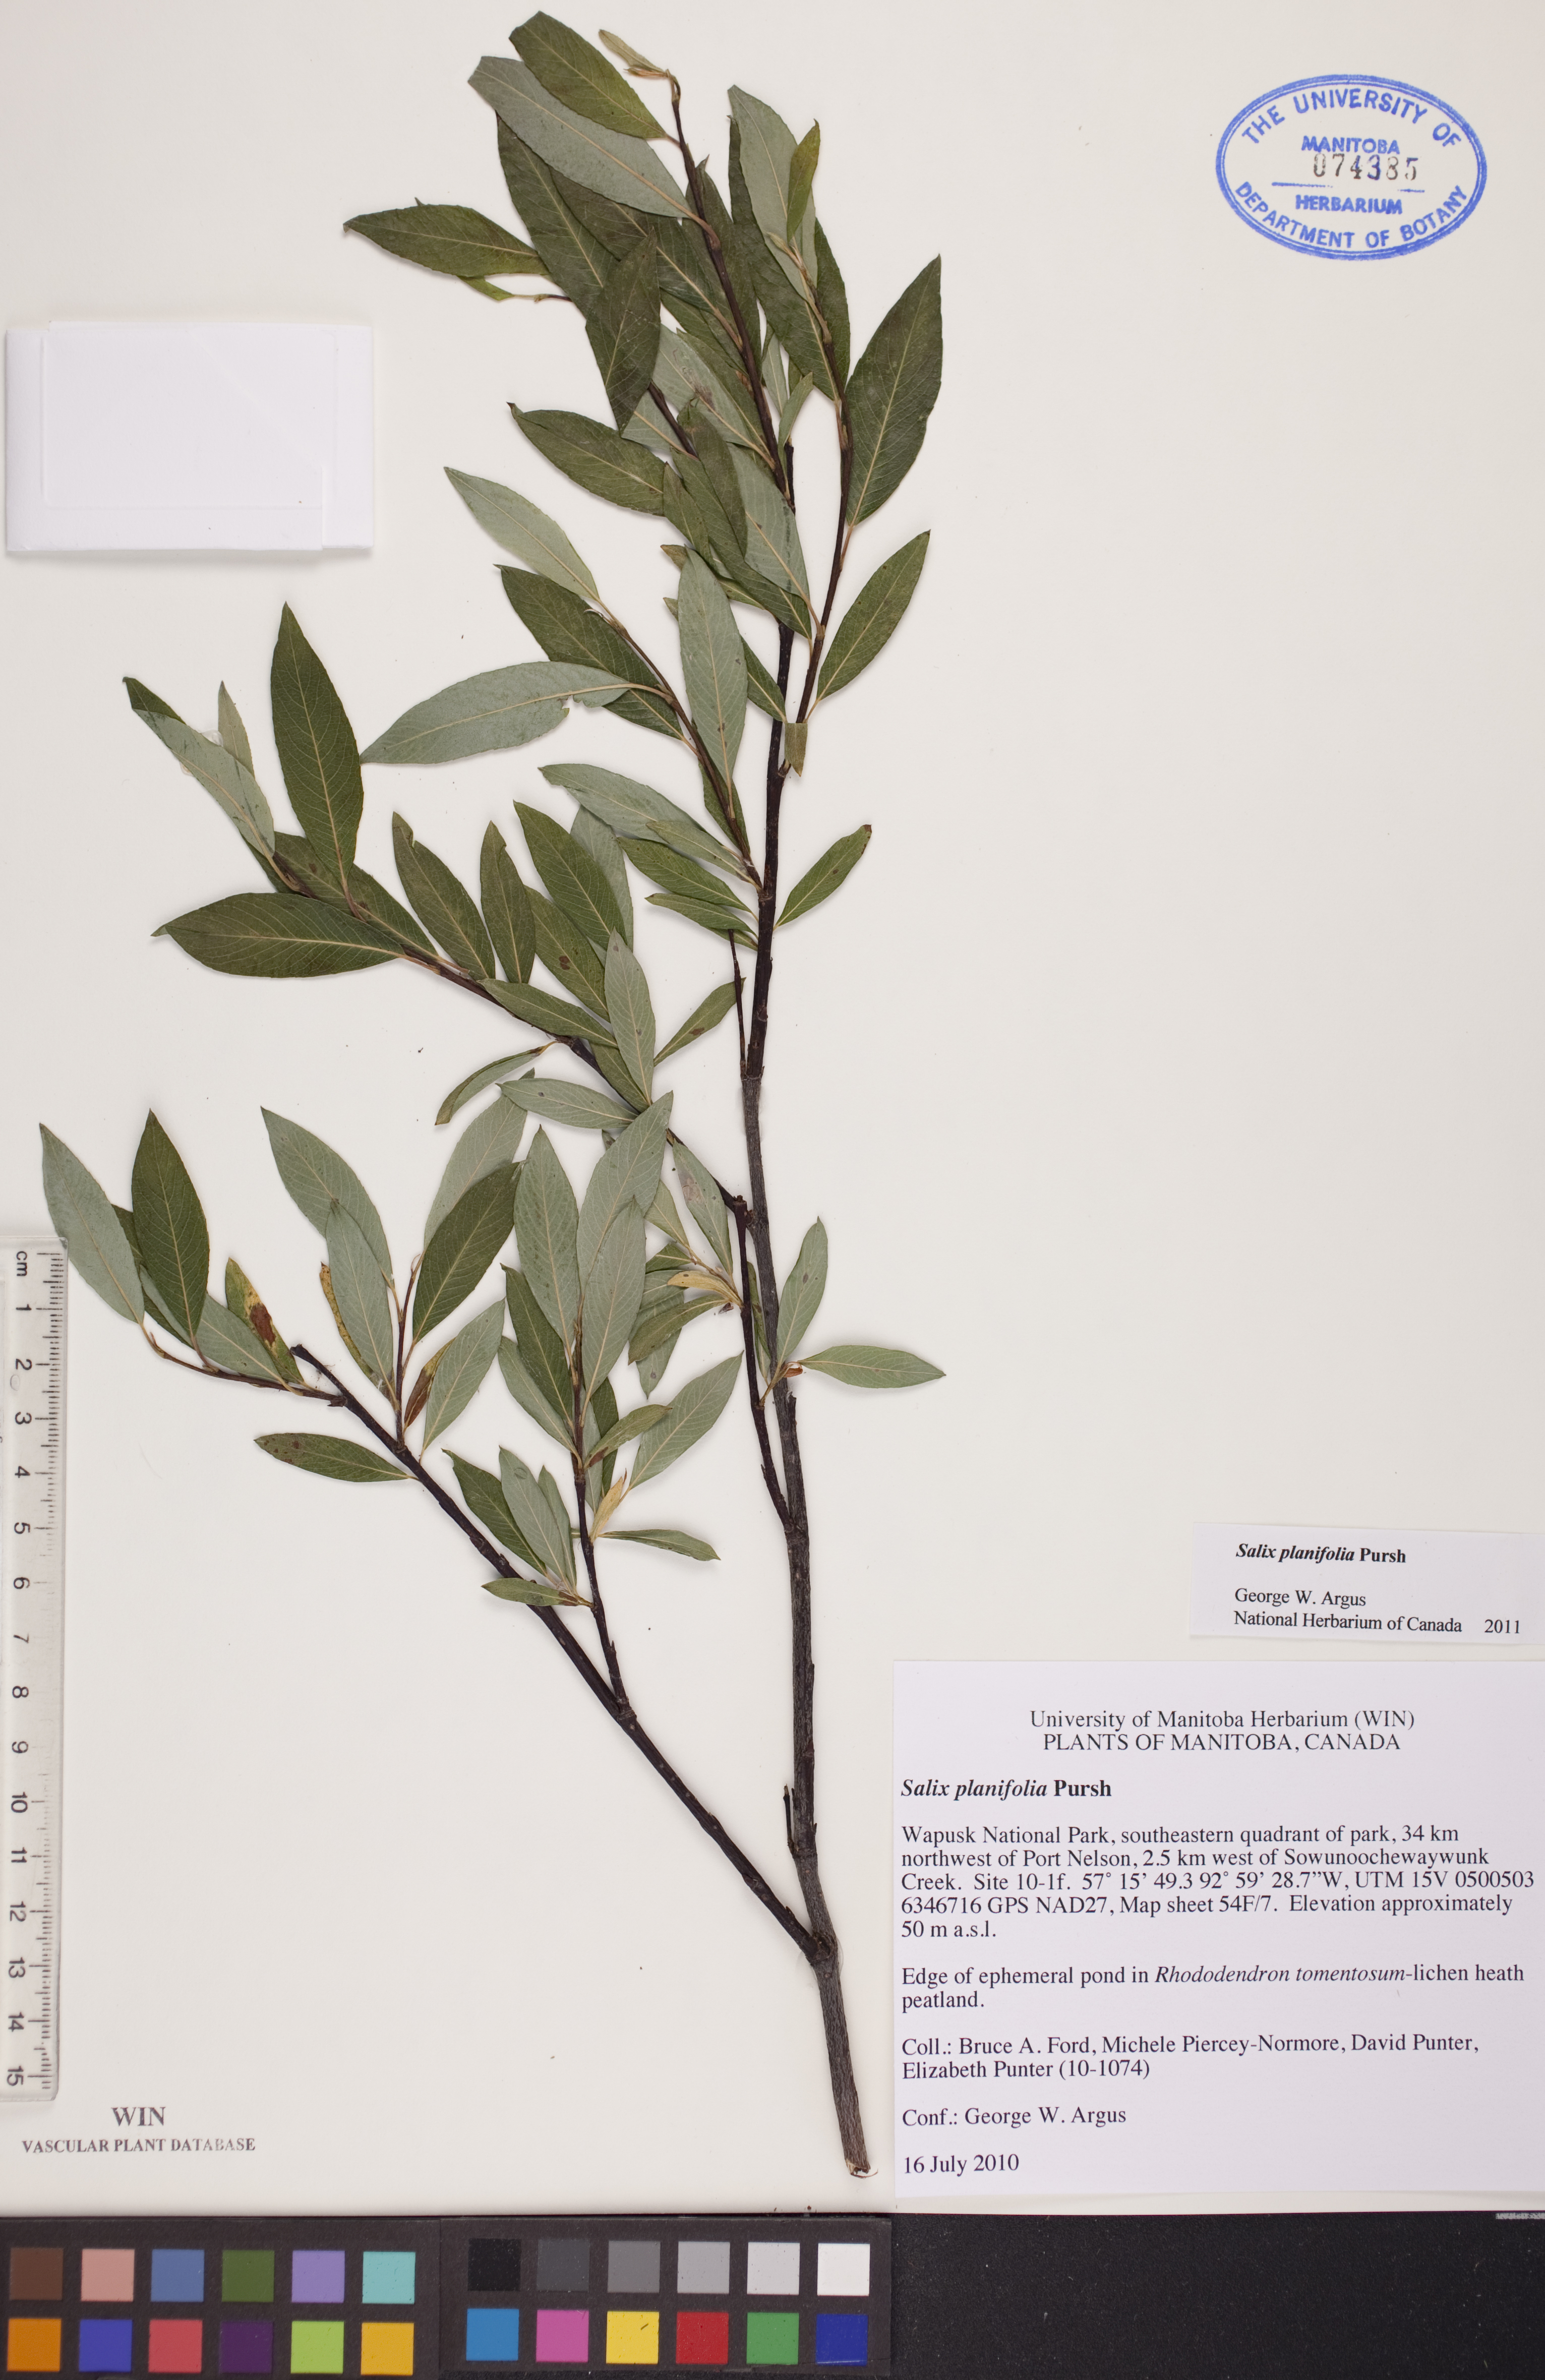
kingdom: Plantae
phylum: Tracheophyta
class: Magnoliopsida
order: Malpighiales
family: Salicaceae
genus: Salix
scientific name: Salix planifolia
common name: Mountain willow
